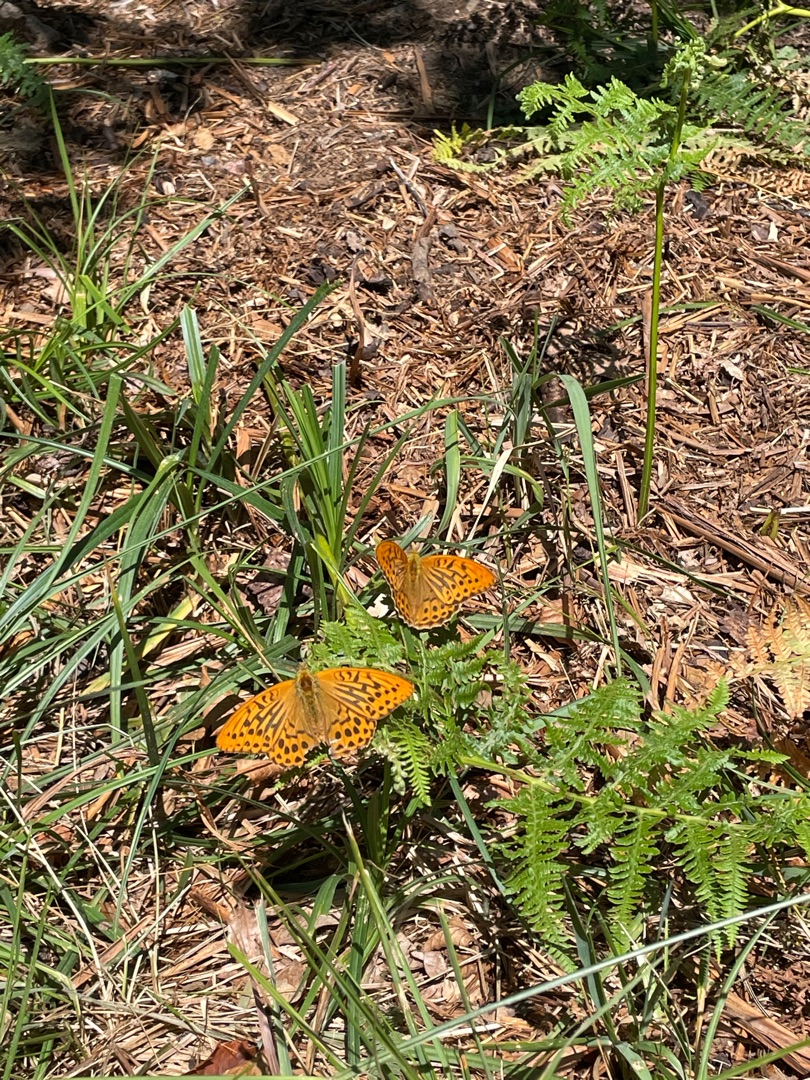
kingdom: Animalia
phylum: Arthropoda
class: Insecta
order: Lepidoptera
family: Nymphalidae
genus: Argynnis
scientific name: Argynnis paphia
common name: Kejserkåbe
